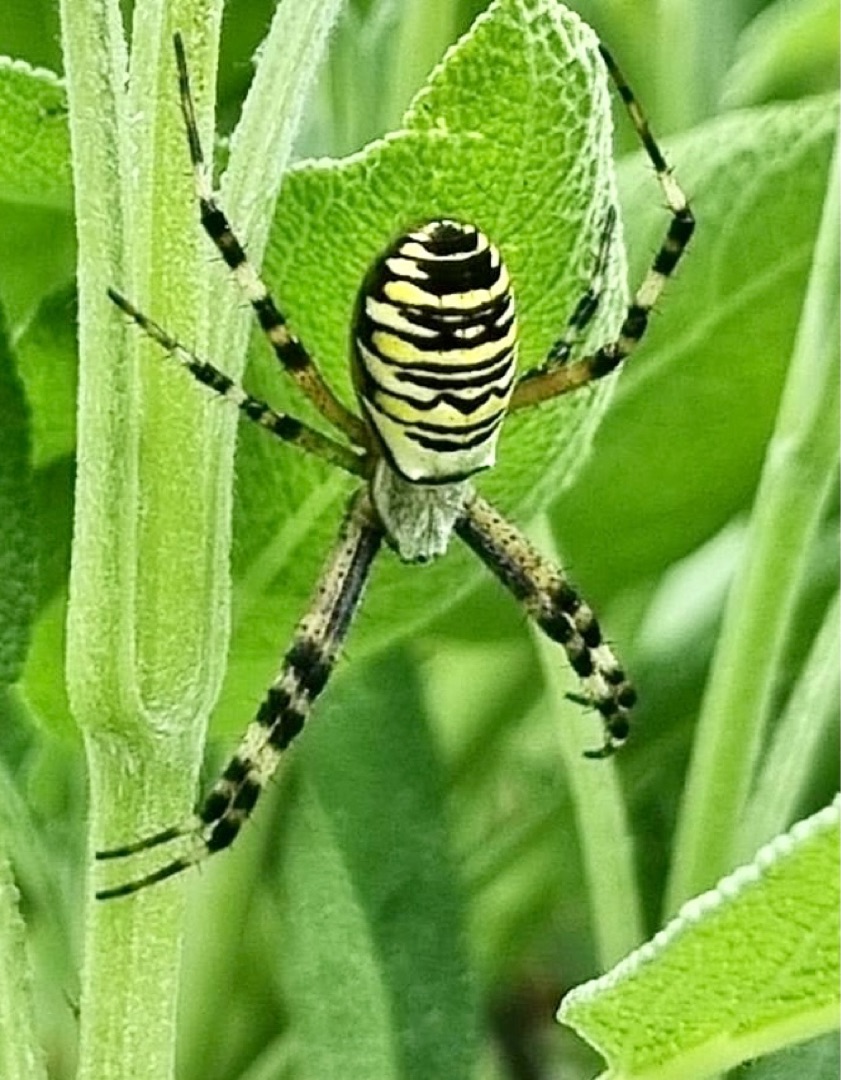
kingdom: Animalia
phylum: Arthropoda
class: Arachnida
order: Araneae
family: Araneidae
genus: Argiope
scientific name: Argiope bruennichi
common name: Hvepseedderkop
